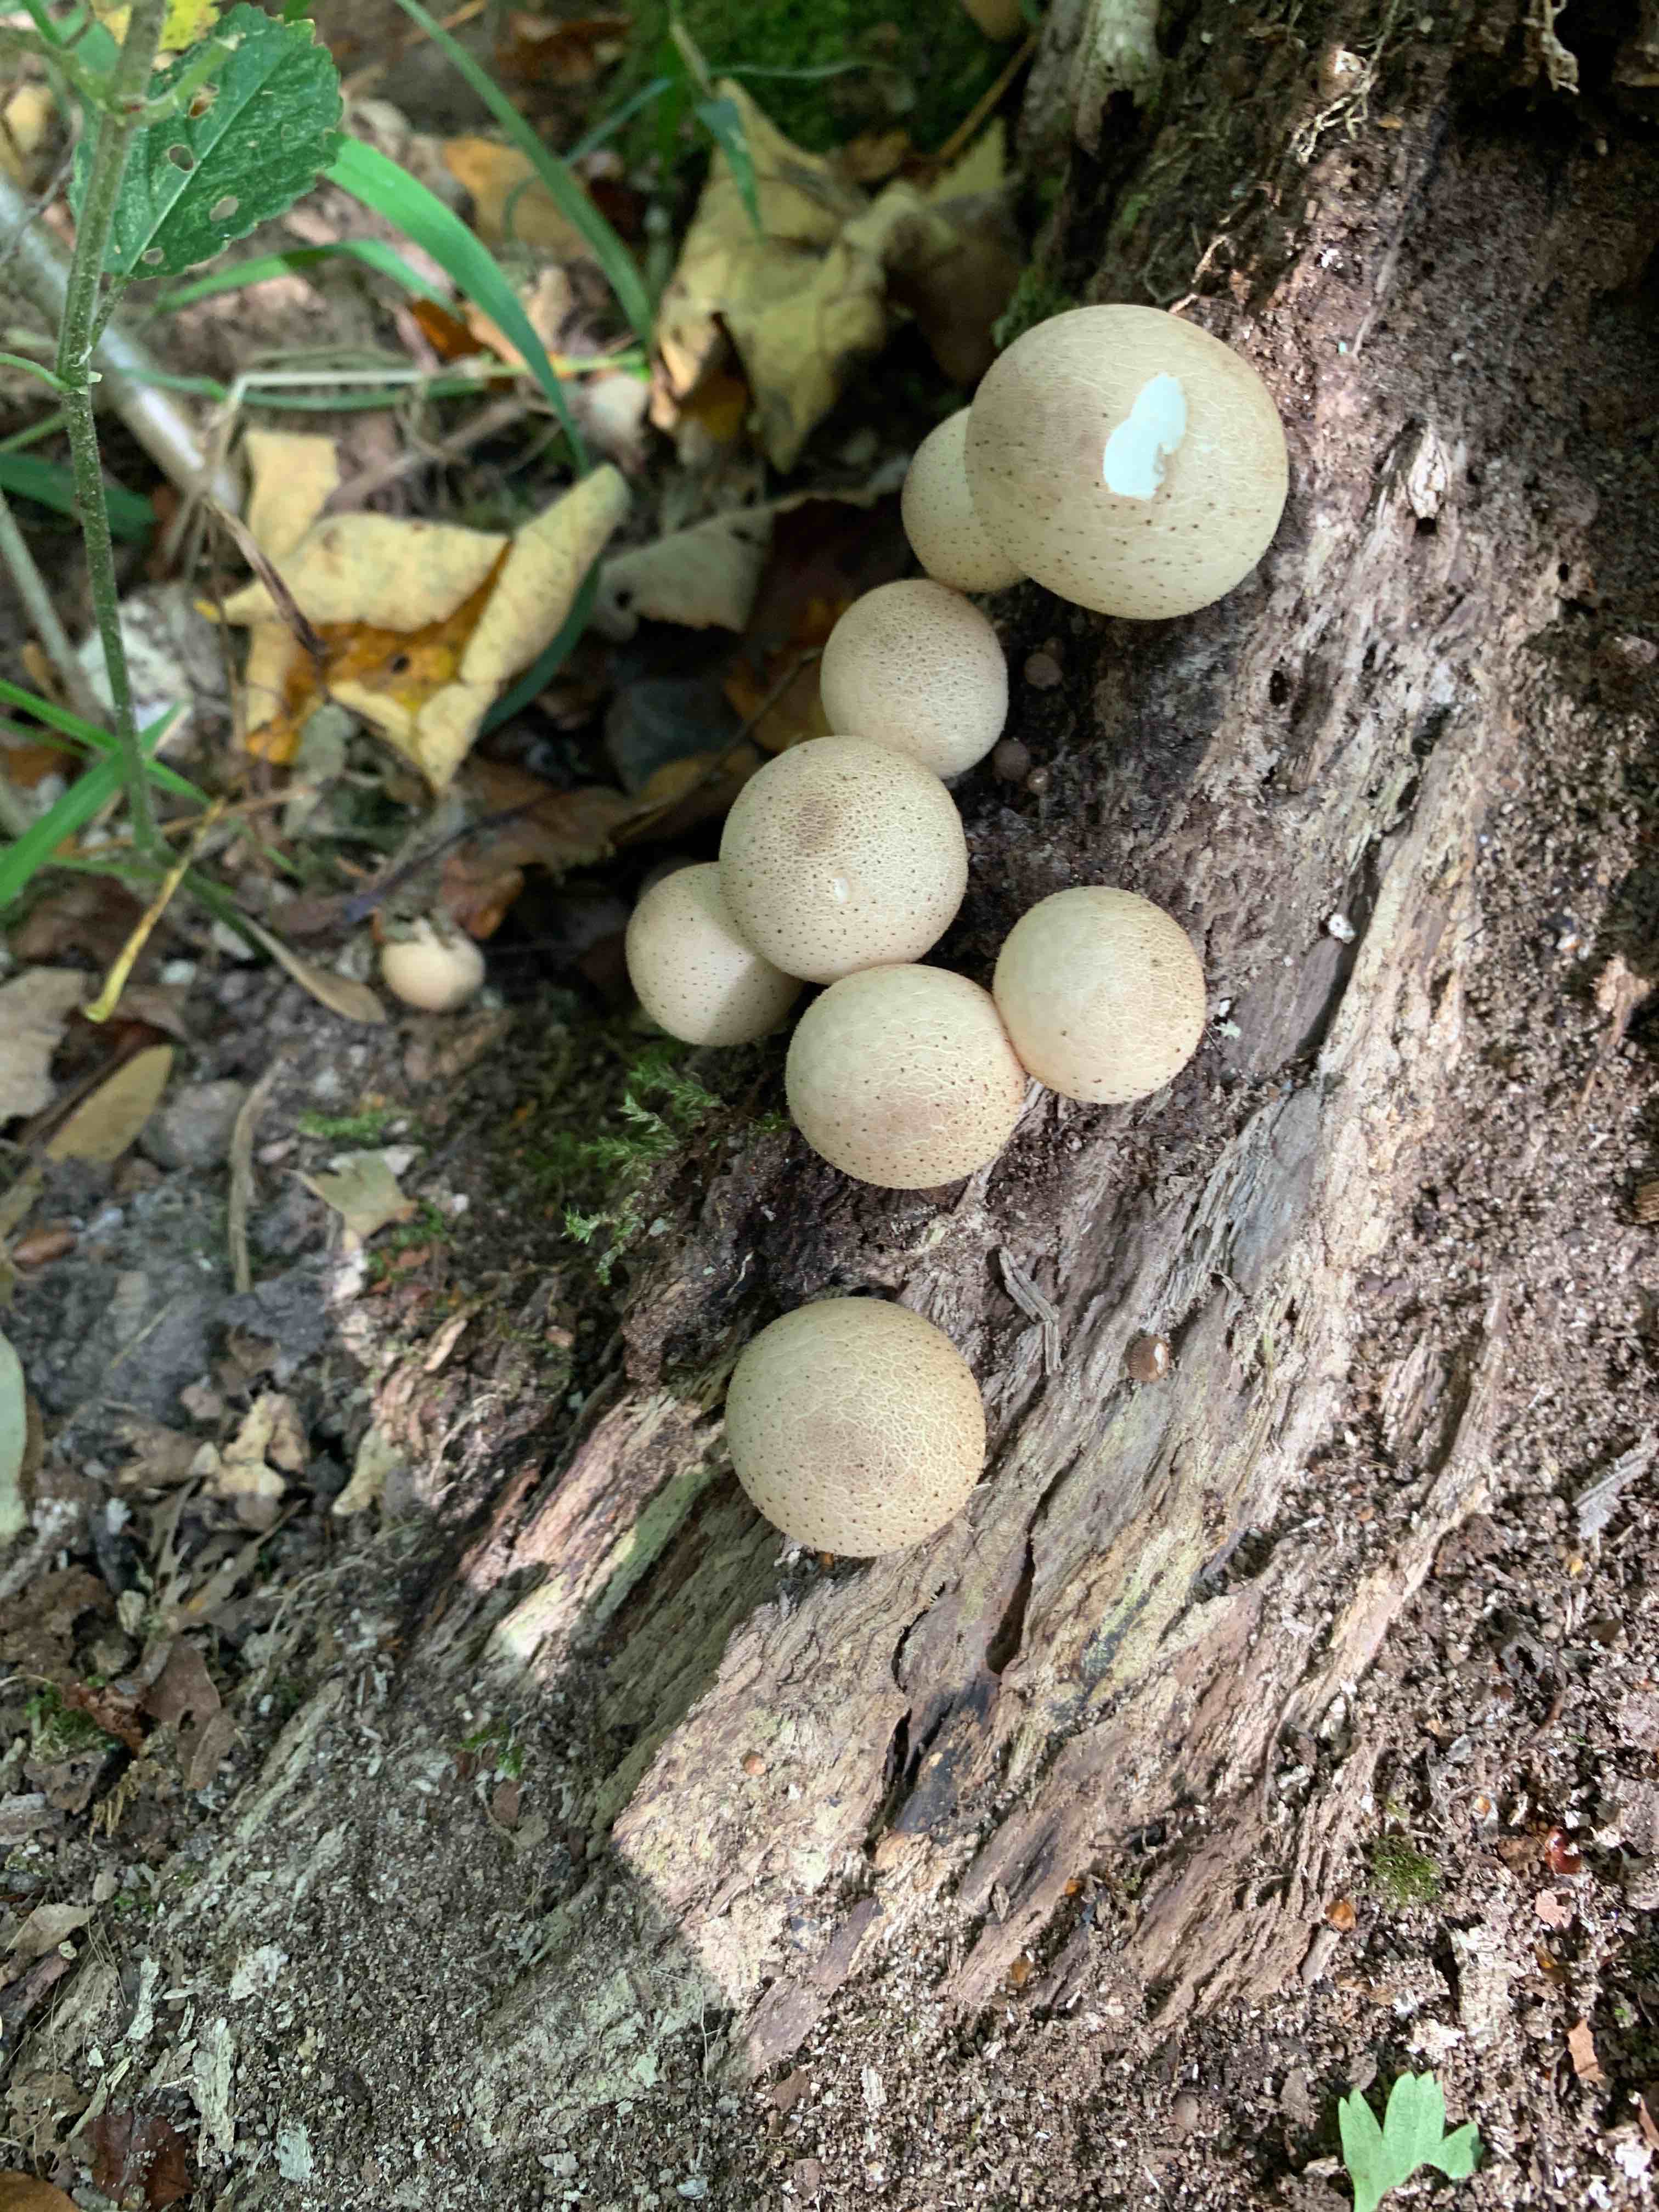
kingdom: Fungi
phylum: Basidiomycota
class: Agaricomycetes
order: Agaricales
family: Lycoperdaceae
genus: Apioperdon
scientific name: Apioperdon pyriforme
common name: pære-støvbold
